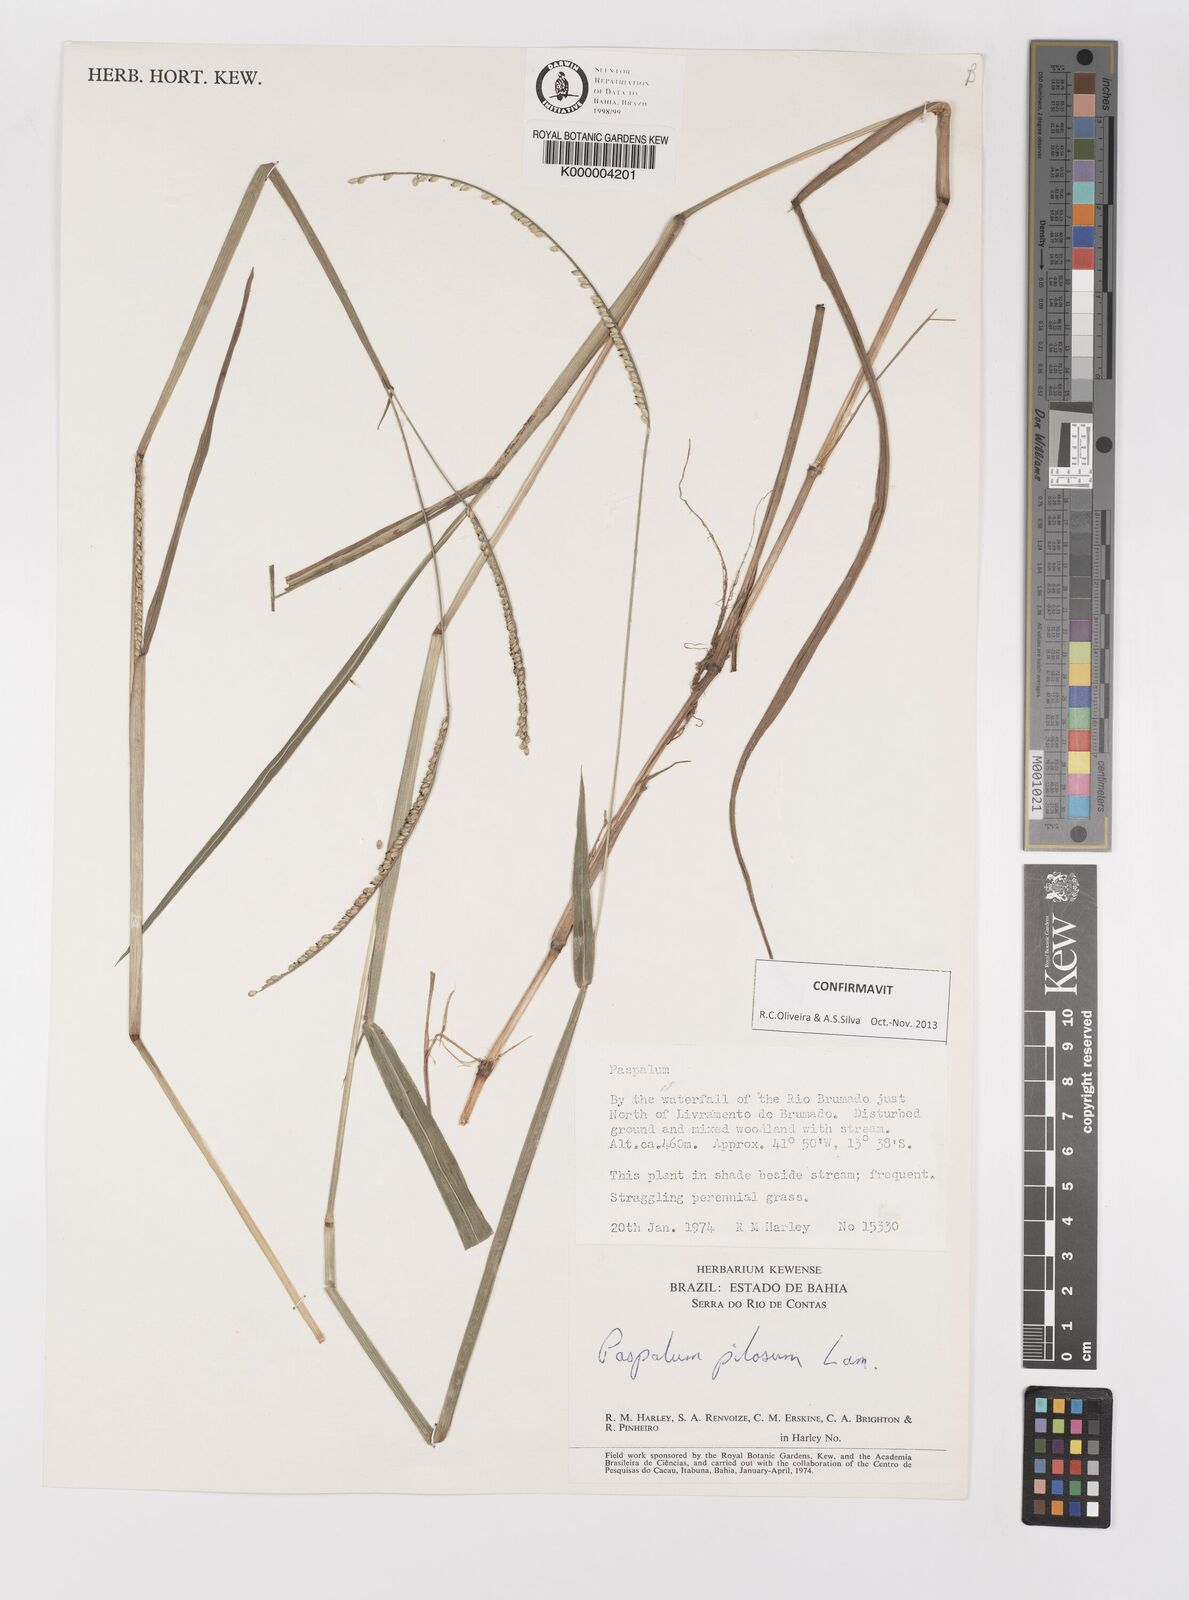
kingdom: Plantae
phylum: Tracheophyta
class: Liliopsida
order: Poales
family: Poaceae
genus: Paspalum
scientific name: Paspalum pilosum
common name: Crowngrass
